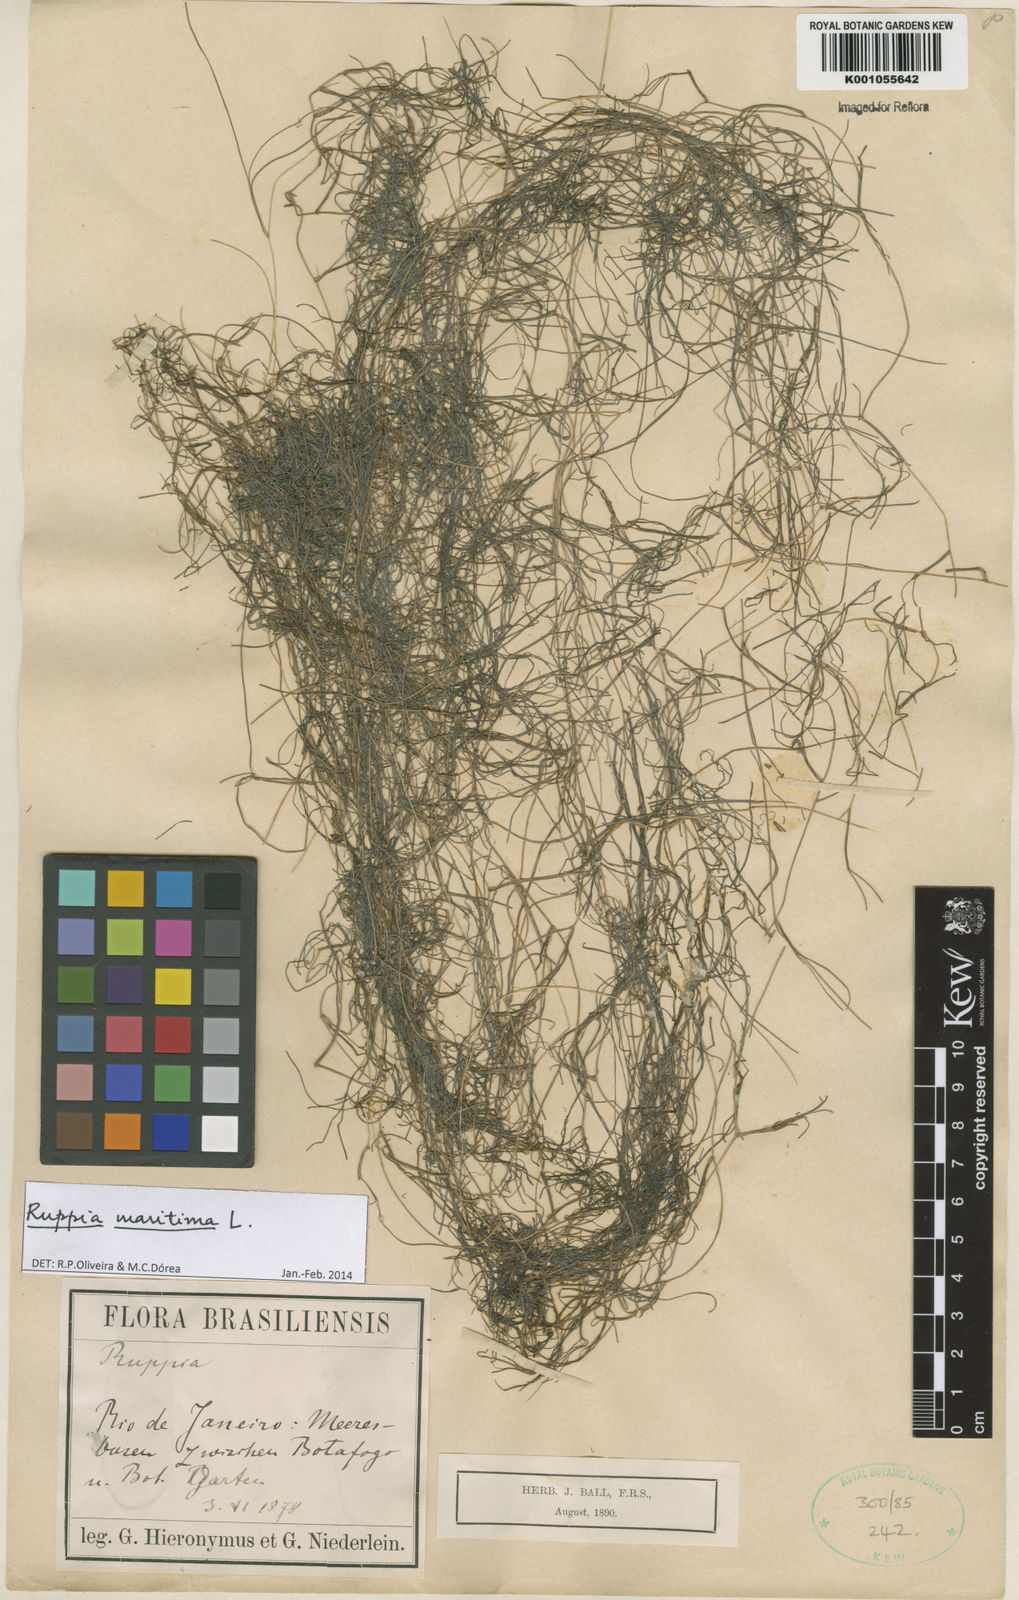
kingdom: Plantae
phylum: Tracheophyta
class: Liliopsida
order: Alismatales
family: Ruppiaceae
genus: Ruppia
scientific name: Ruppia maritima
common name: Beaked tasselweed
